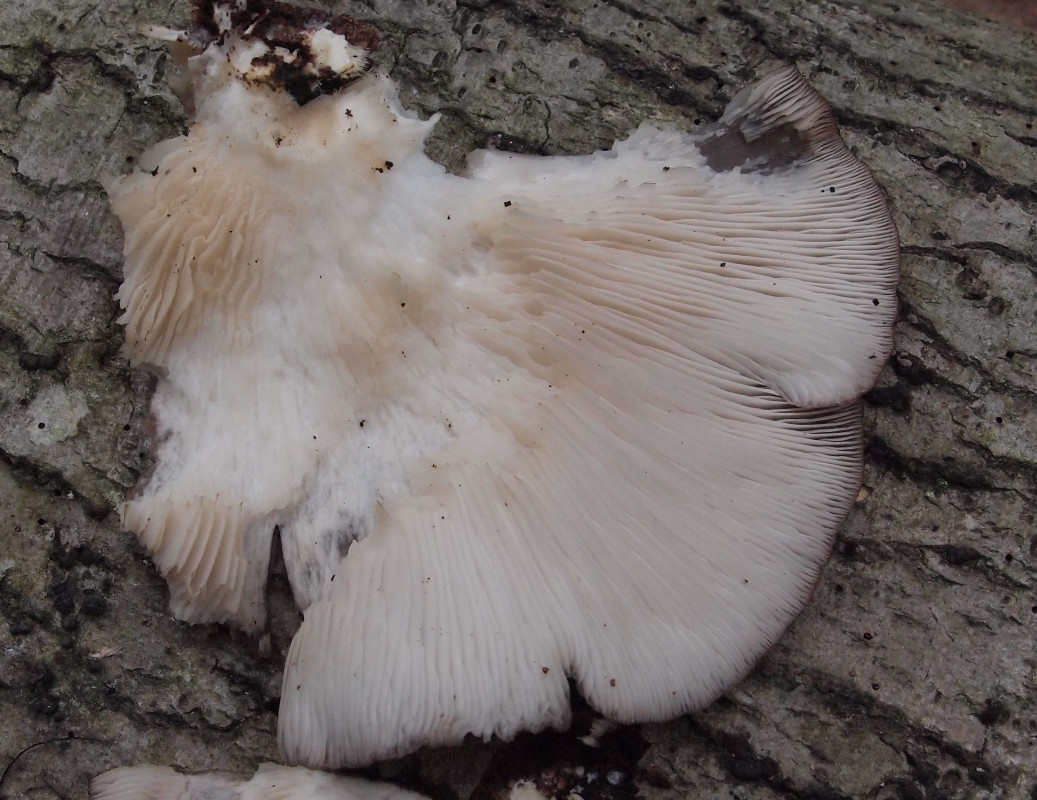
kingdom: Fungi
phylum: Basidiomycota
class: Agaricomycetes
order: Agaricales
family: Pleurotaceae
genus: Pleurotus
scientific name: Pleurotus pulmonarius
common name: sommer-østershat
